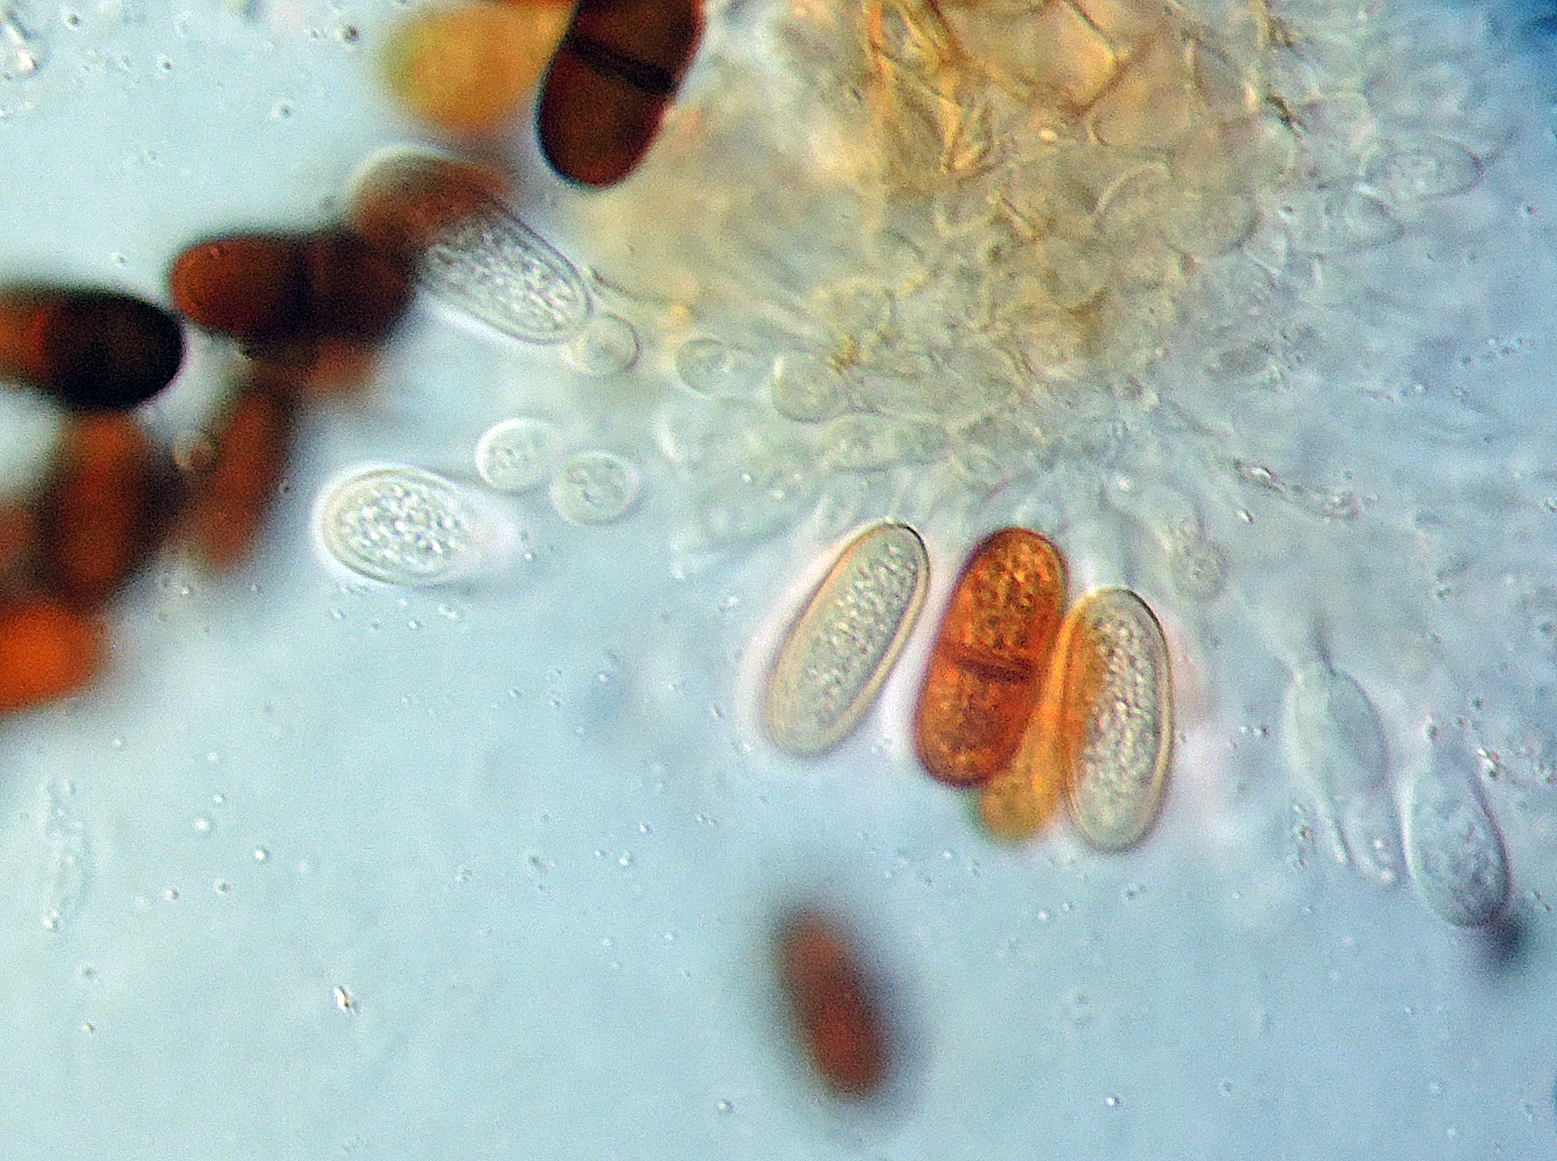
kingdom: Fungi
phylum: Ascomycota
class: Dothideomycetes
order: Botryosphaeriales
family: Botryosphaeriaceae
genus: Diplodia
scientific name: Diplodia mamillana
